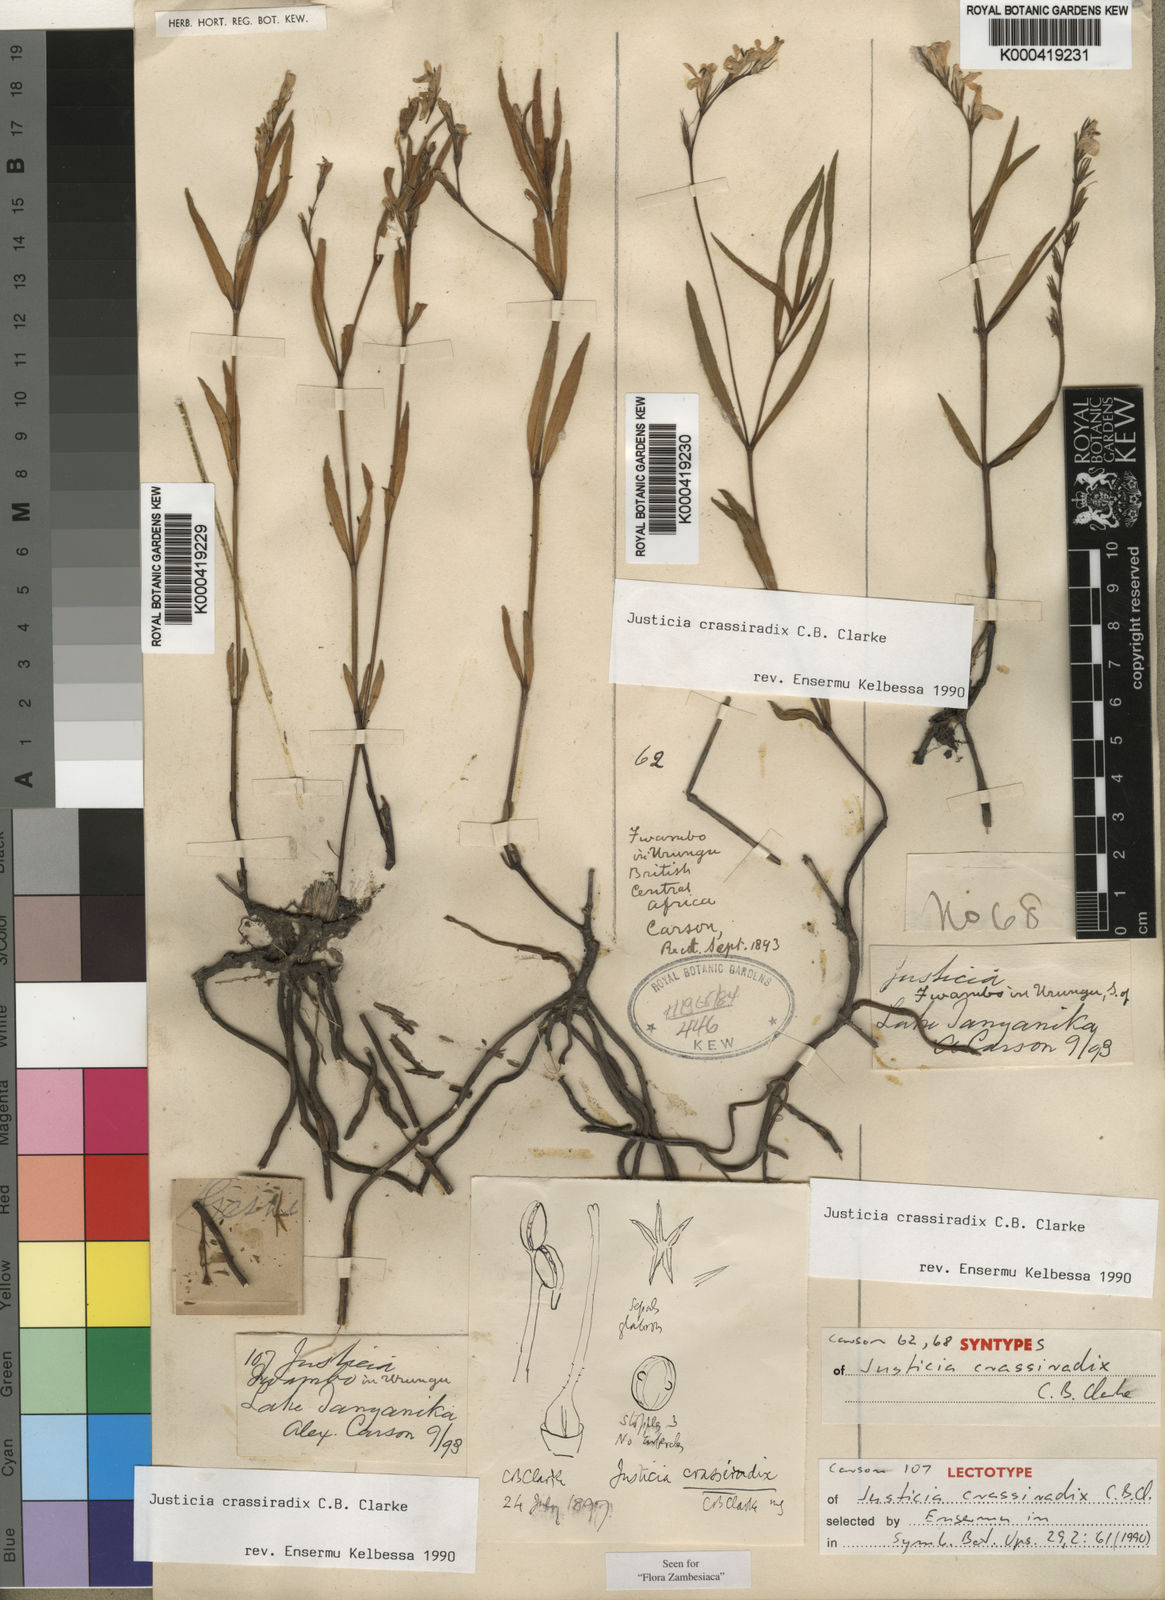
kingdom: Plantae
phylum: Tracheophyta
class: Magnoliopsida
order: Lamiales
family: Acanthaceae
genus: Justicia
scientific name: Justicia crassiradix
